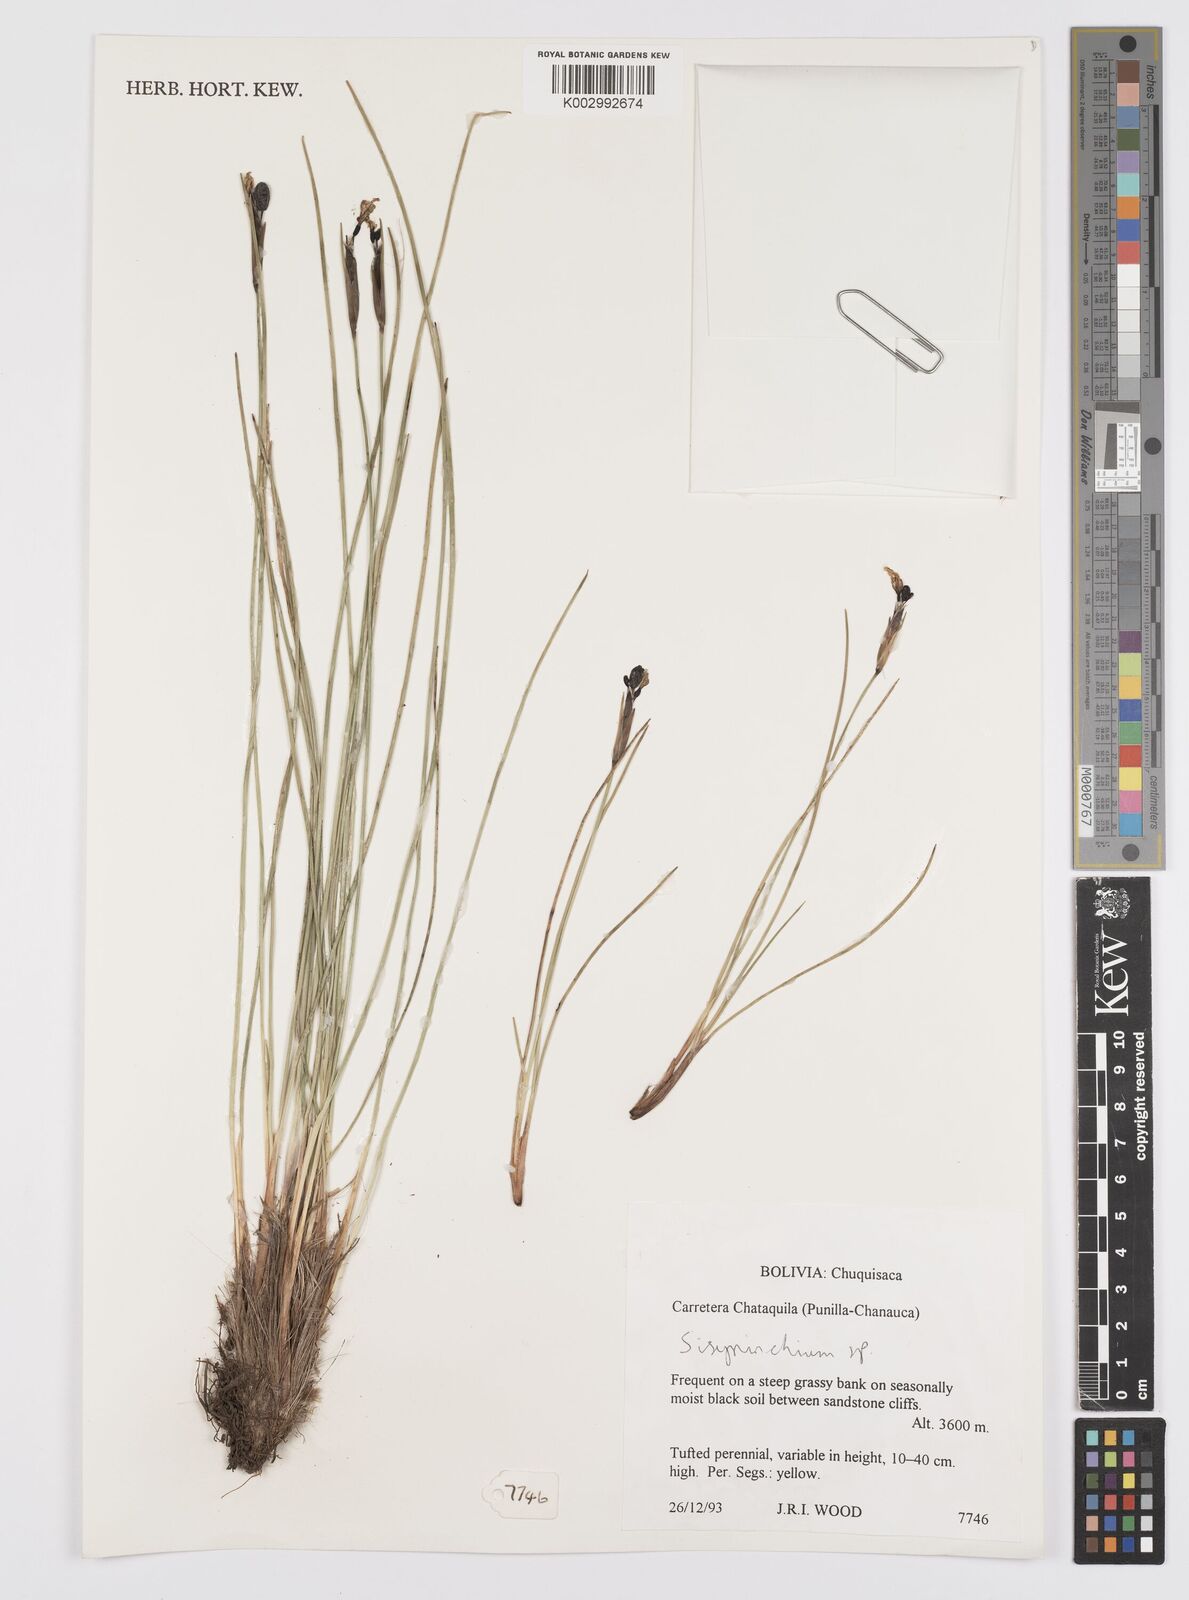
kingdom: Plantae
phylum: Tracheophyta
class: Liliopsida
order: Asparagales
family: Iridaceae
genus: Sisyrinchium
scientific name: Sisyrinchium
